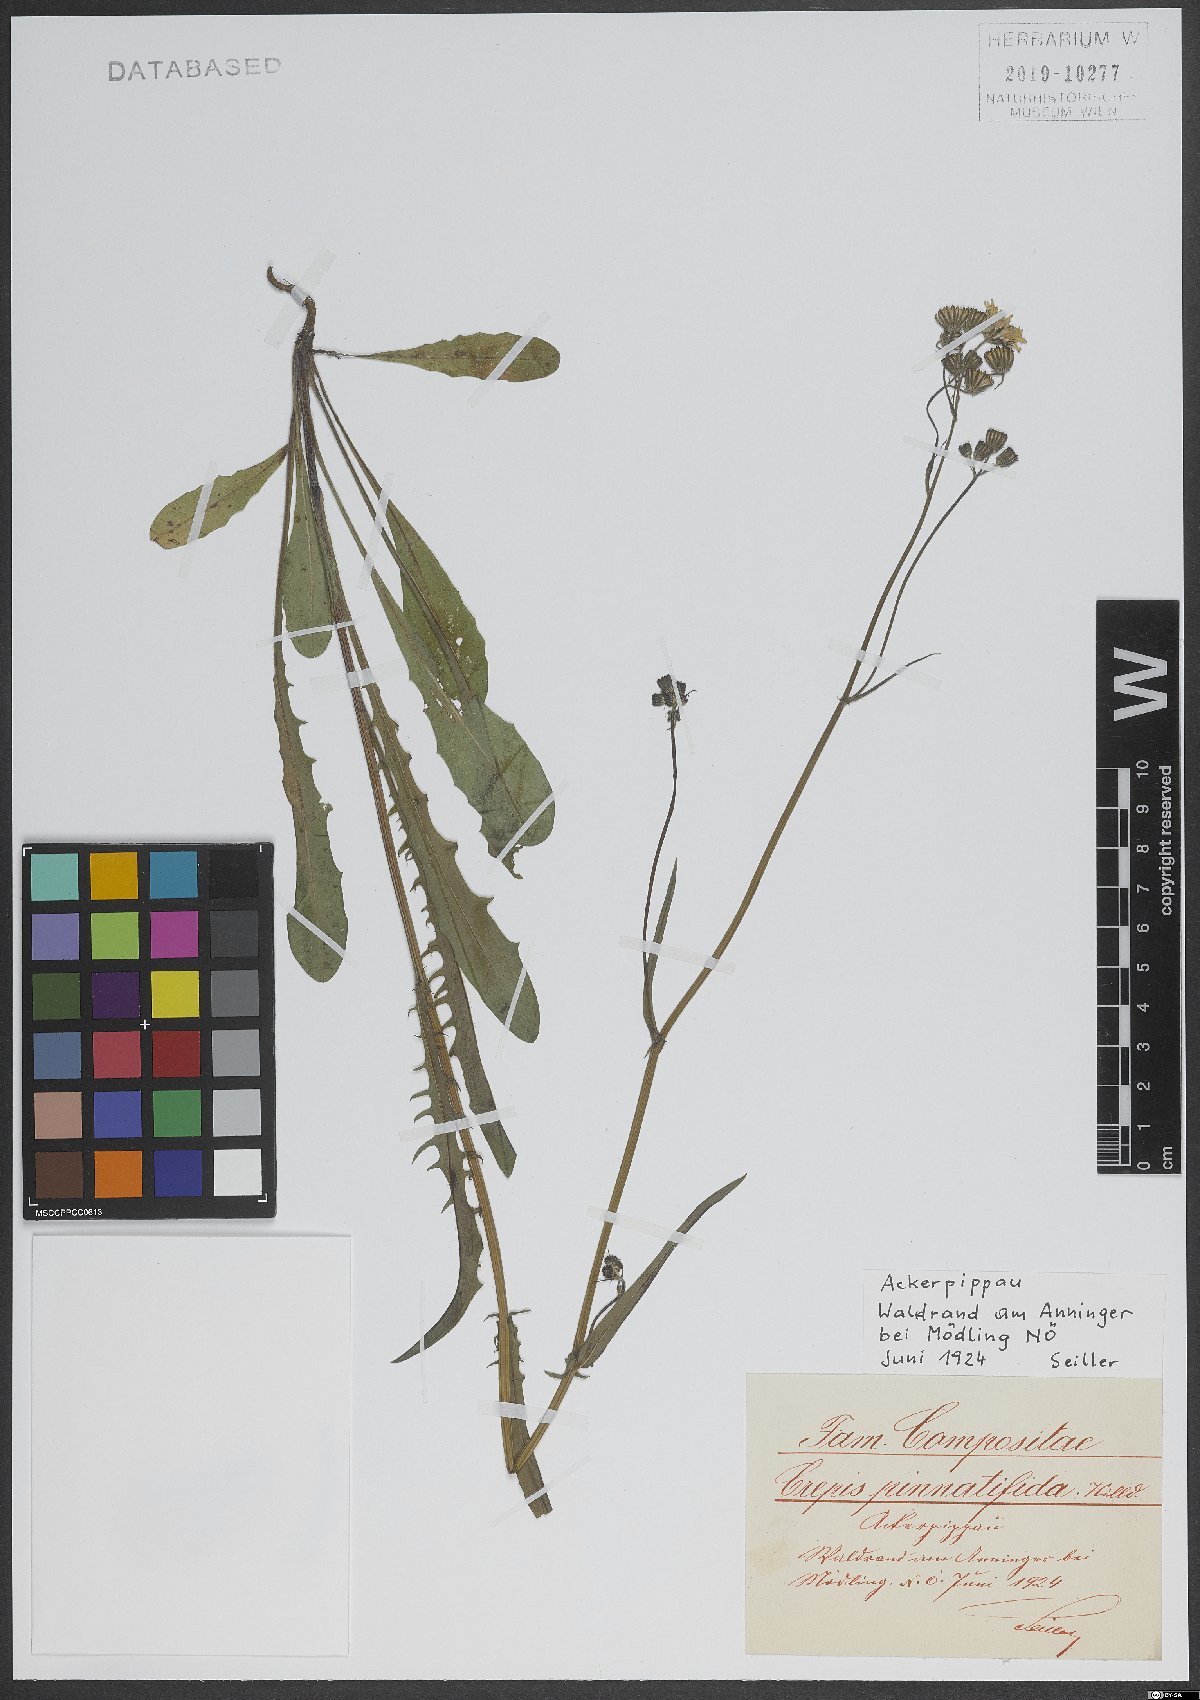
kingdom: Plantae
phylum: Tracheophyta
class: Magnoliopsida
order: Asterales
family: Asteraceae
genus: Crepis
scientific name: Crepis capillaris
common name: Smooth hawksbeard
